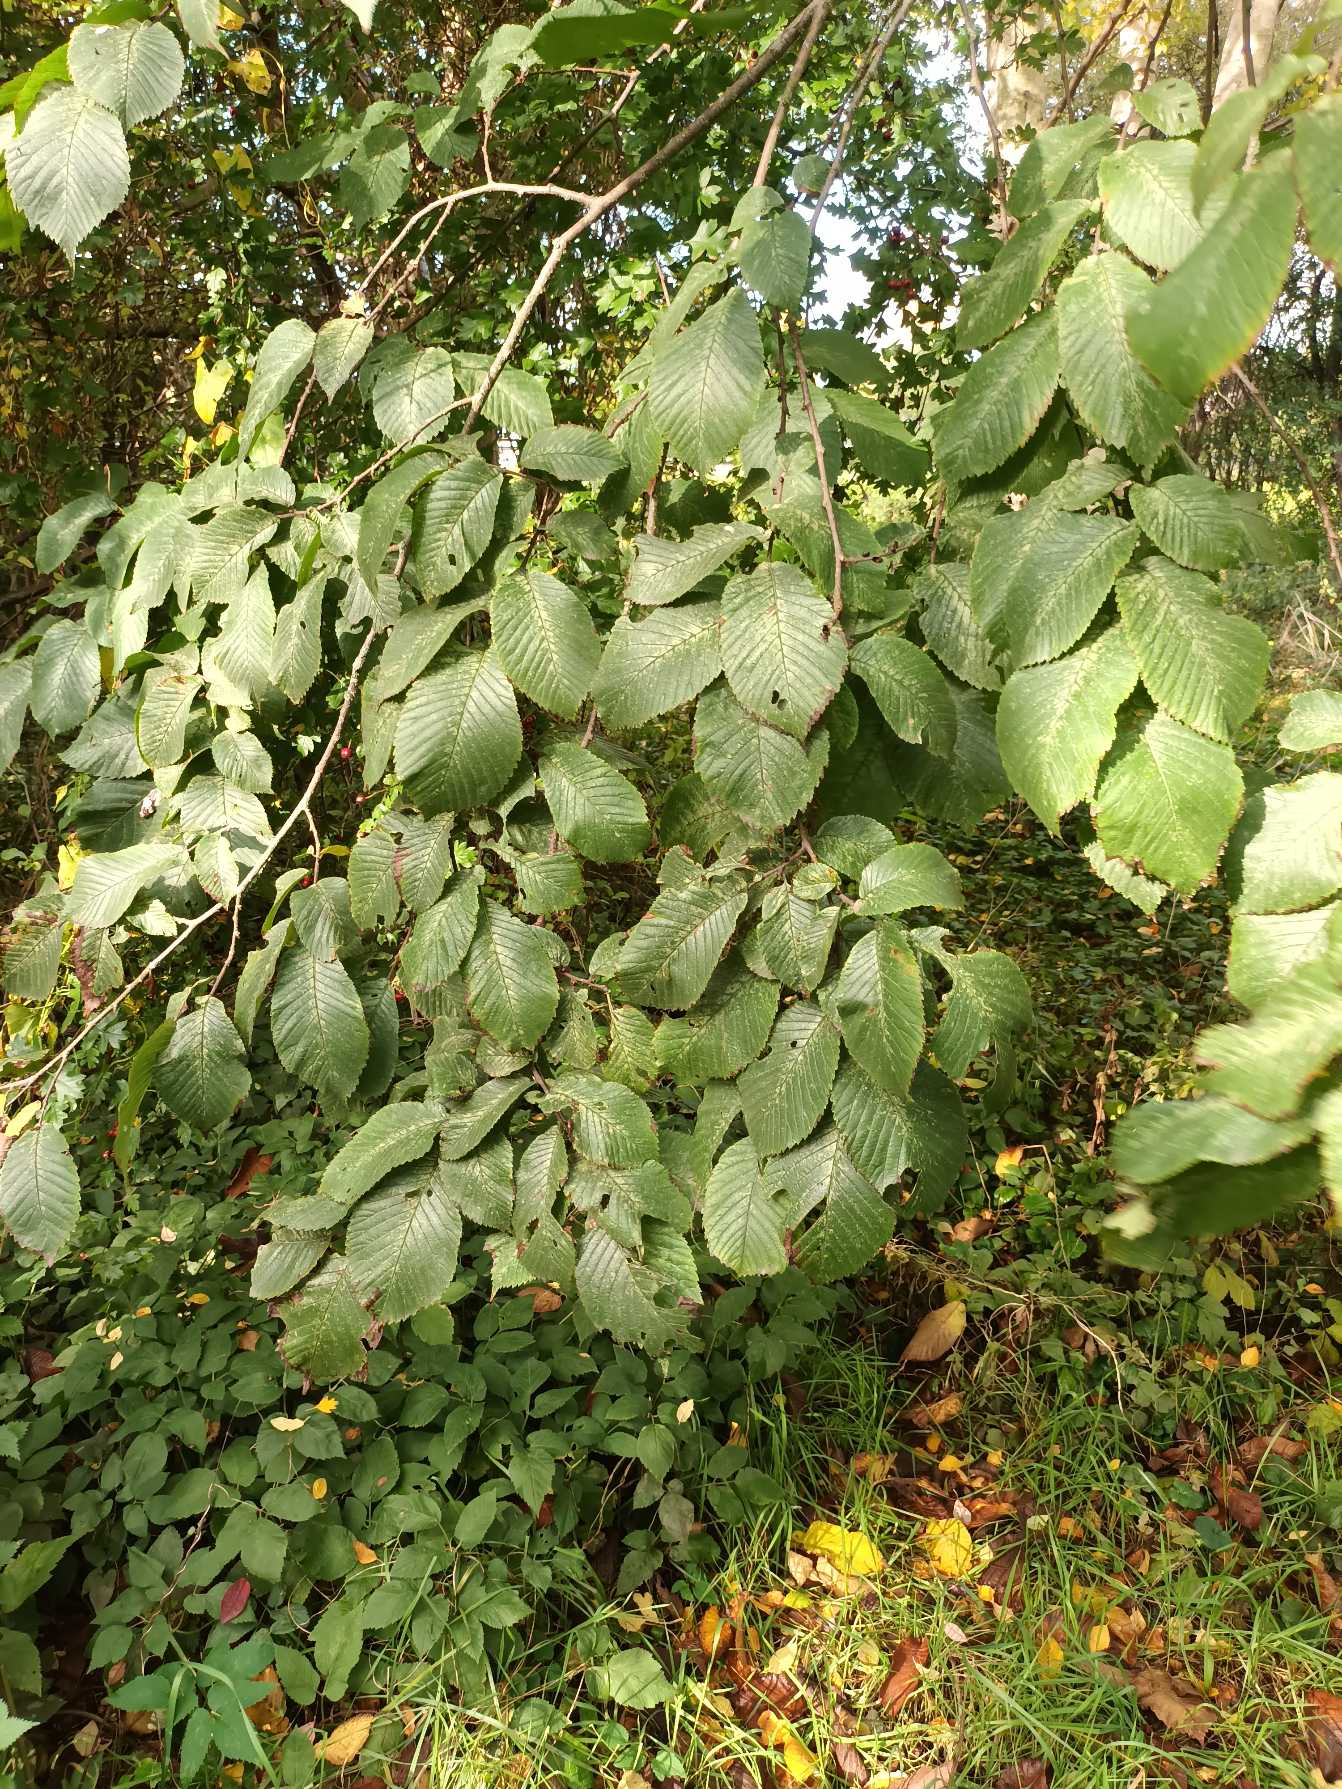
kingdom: Plantae
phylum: Tracheophyta
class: Magnoliopsida
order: Rosales
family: Ulmaceae
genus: Ulmus
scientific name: Ulmus glabra
